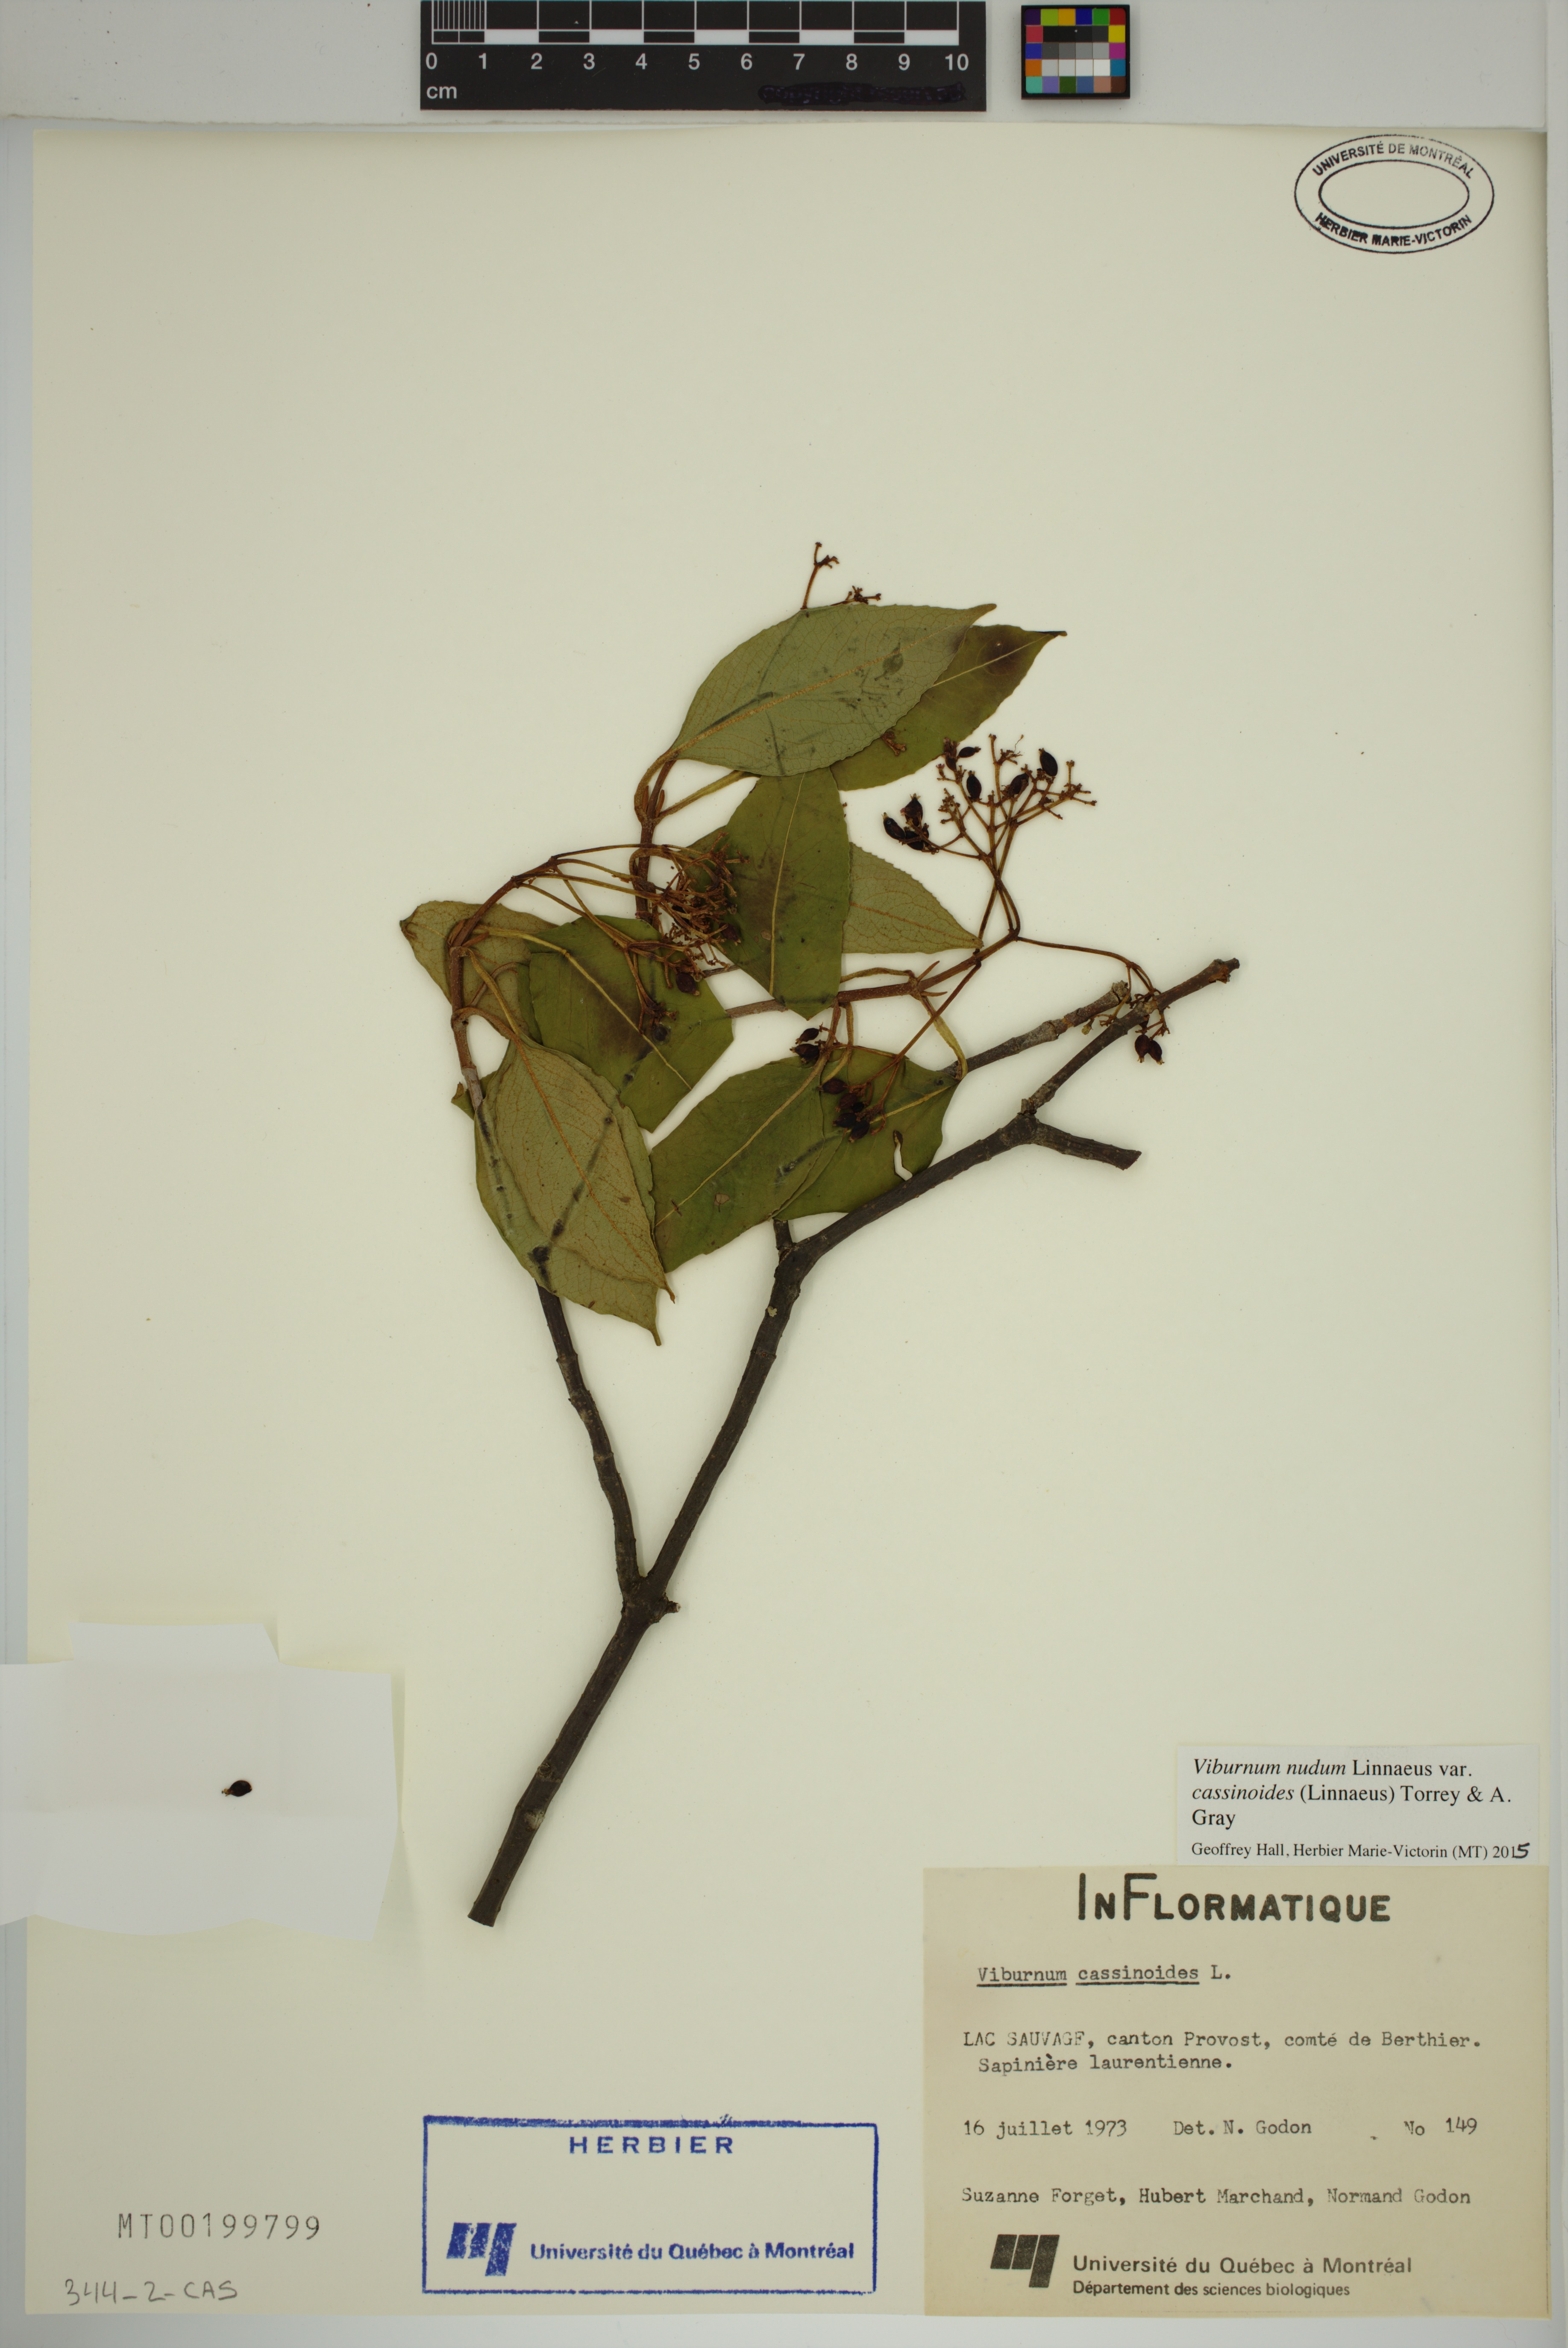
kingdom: Plantae
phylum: Tracheophyta
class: Magnoliopsida
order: Dipsacales
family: Viburnaceae
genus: Viburnum
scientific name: Viburnum cassinoides
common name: Swamp haw
